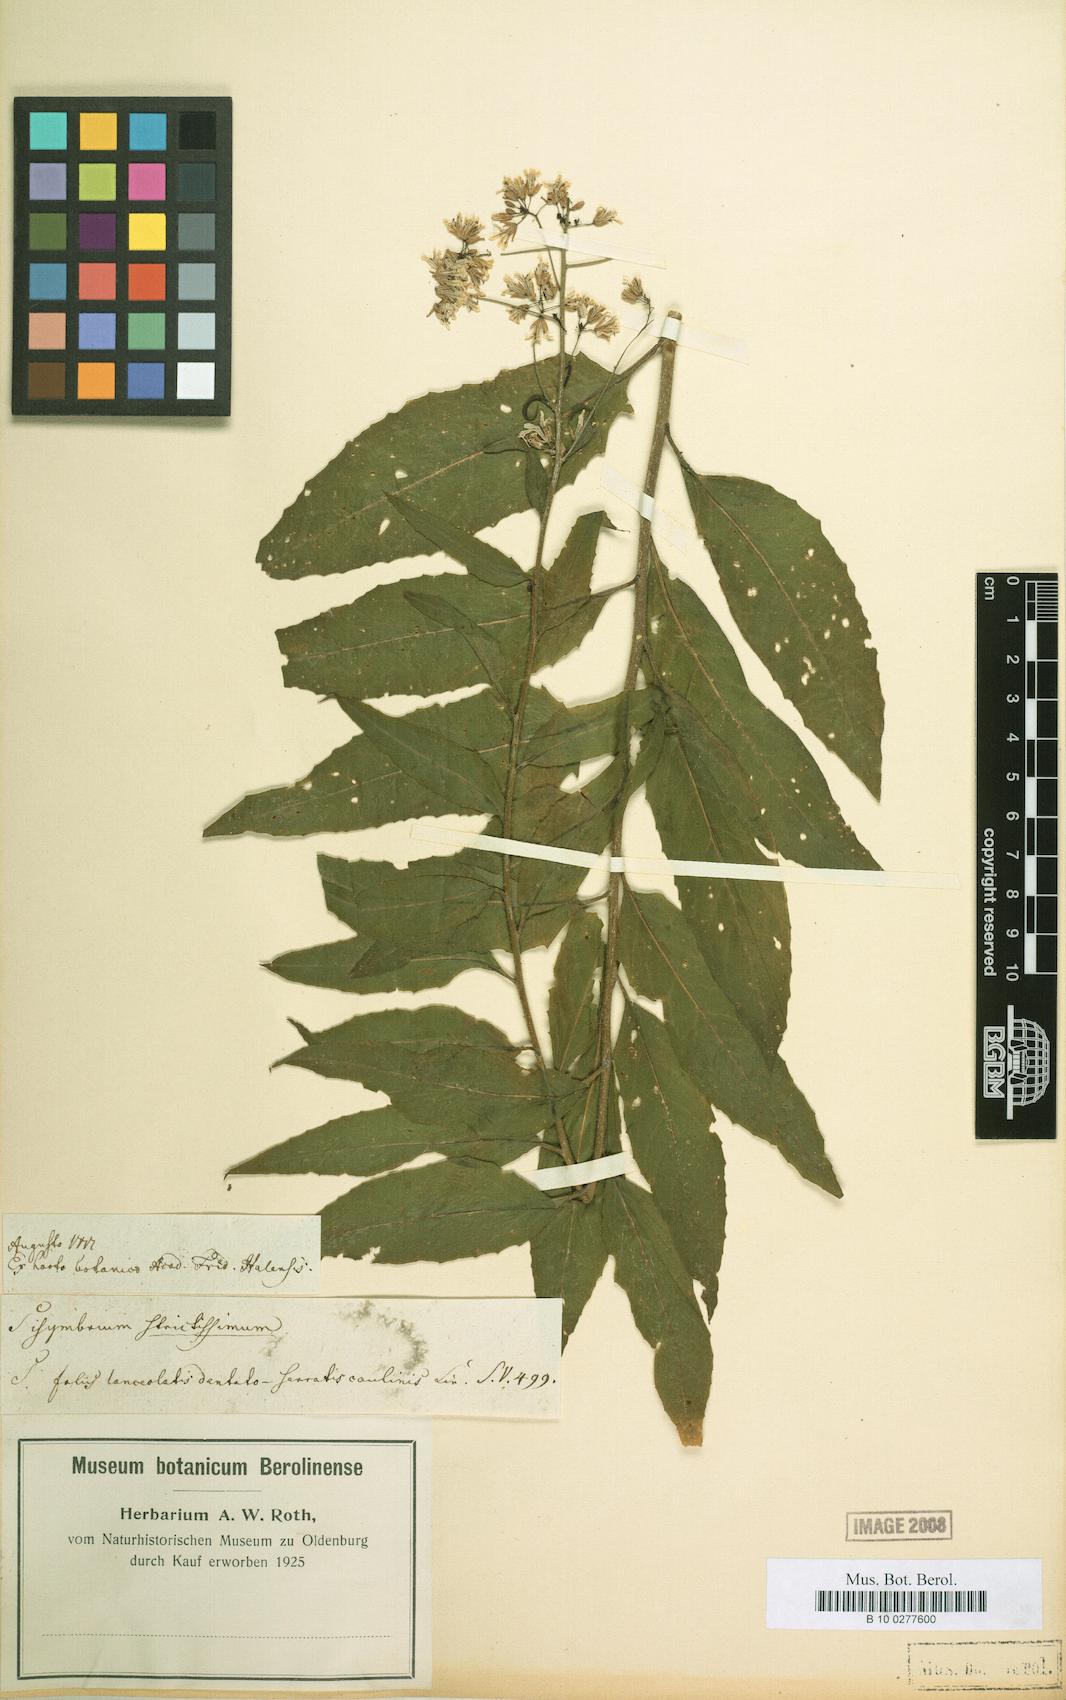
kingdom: Plantae
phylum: Tracheophyta
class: Magnoliopsida
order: Brassicales
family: Brassicaceae
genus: Sisymbrium
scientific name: Sisymbrium strictissimum
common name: Perennial rocket
